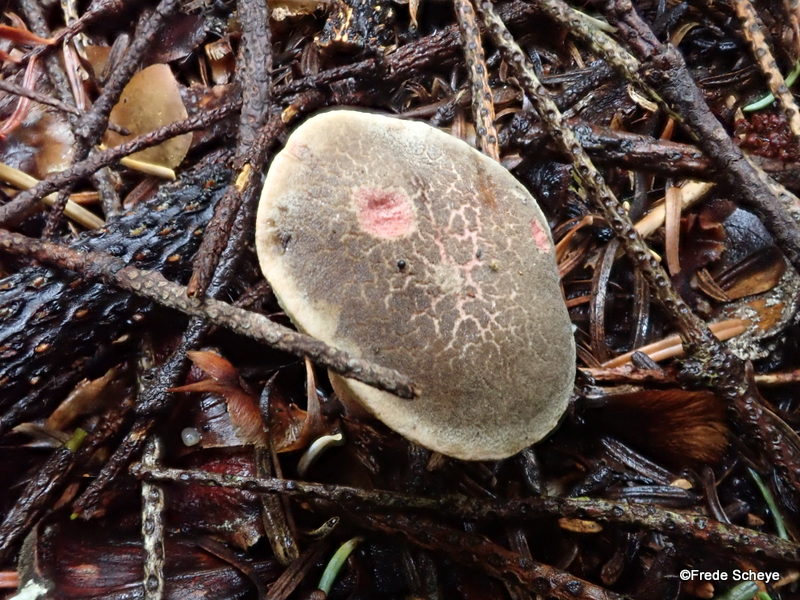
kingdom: Fungi
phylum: Basidiomycota
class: Agaricomycetes
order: Boletales
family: Boletaceae
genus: Xerocomellus
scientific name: Xerocomellus chrysenteron
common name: rødsprukken rørhat
